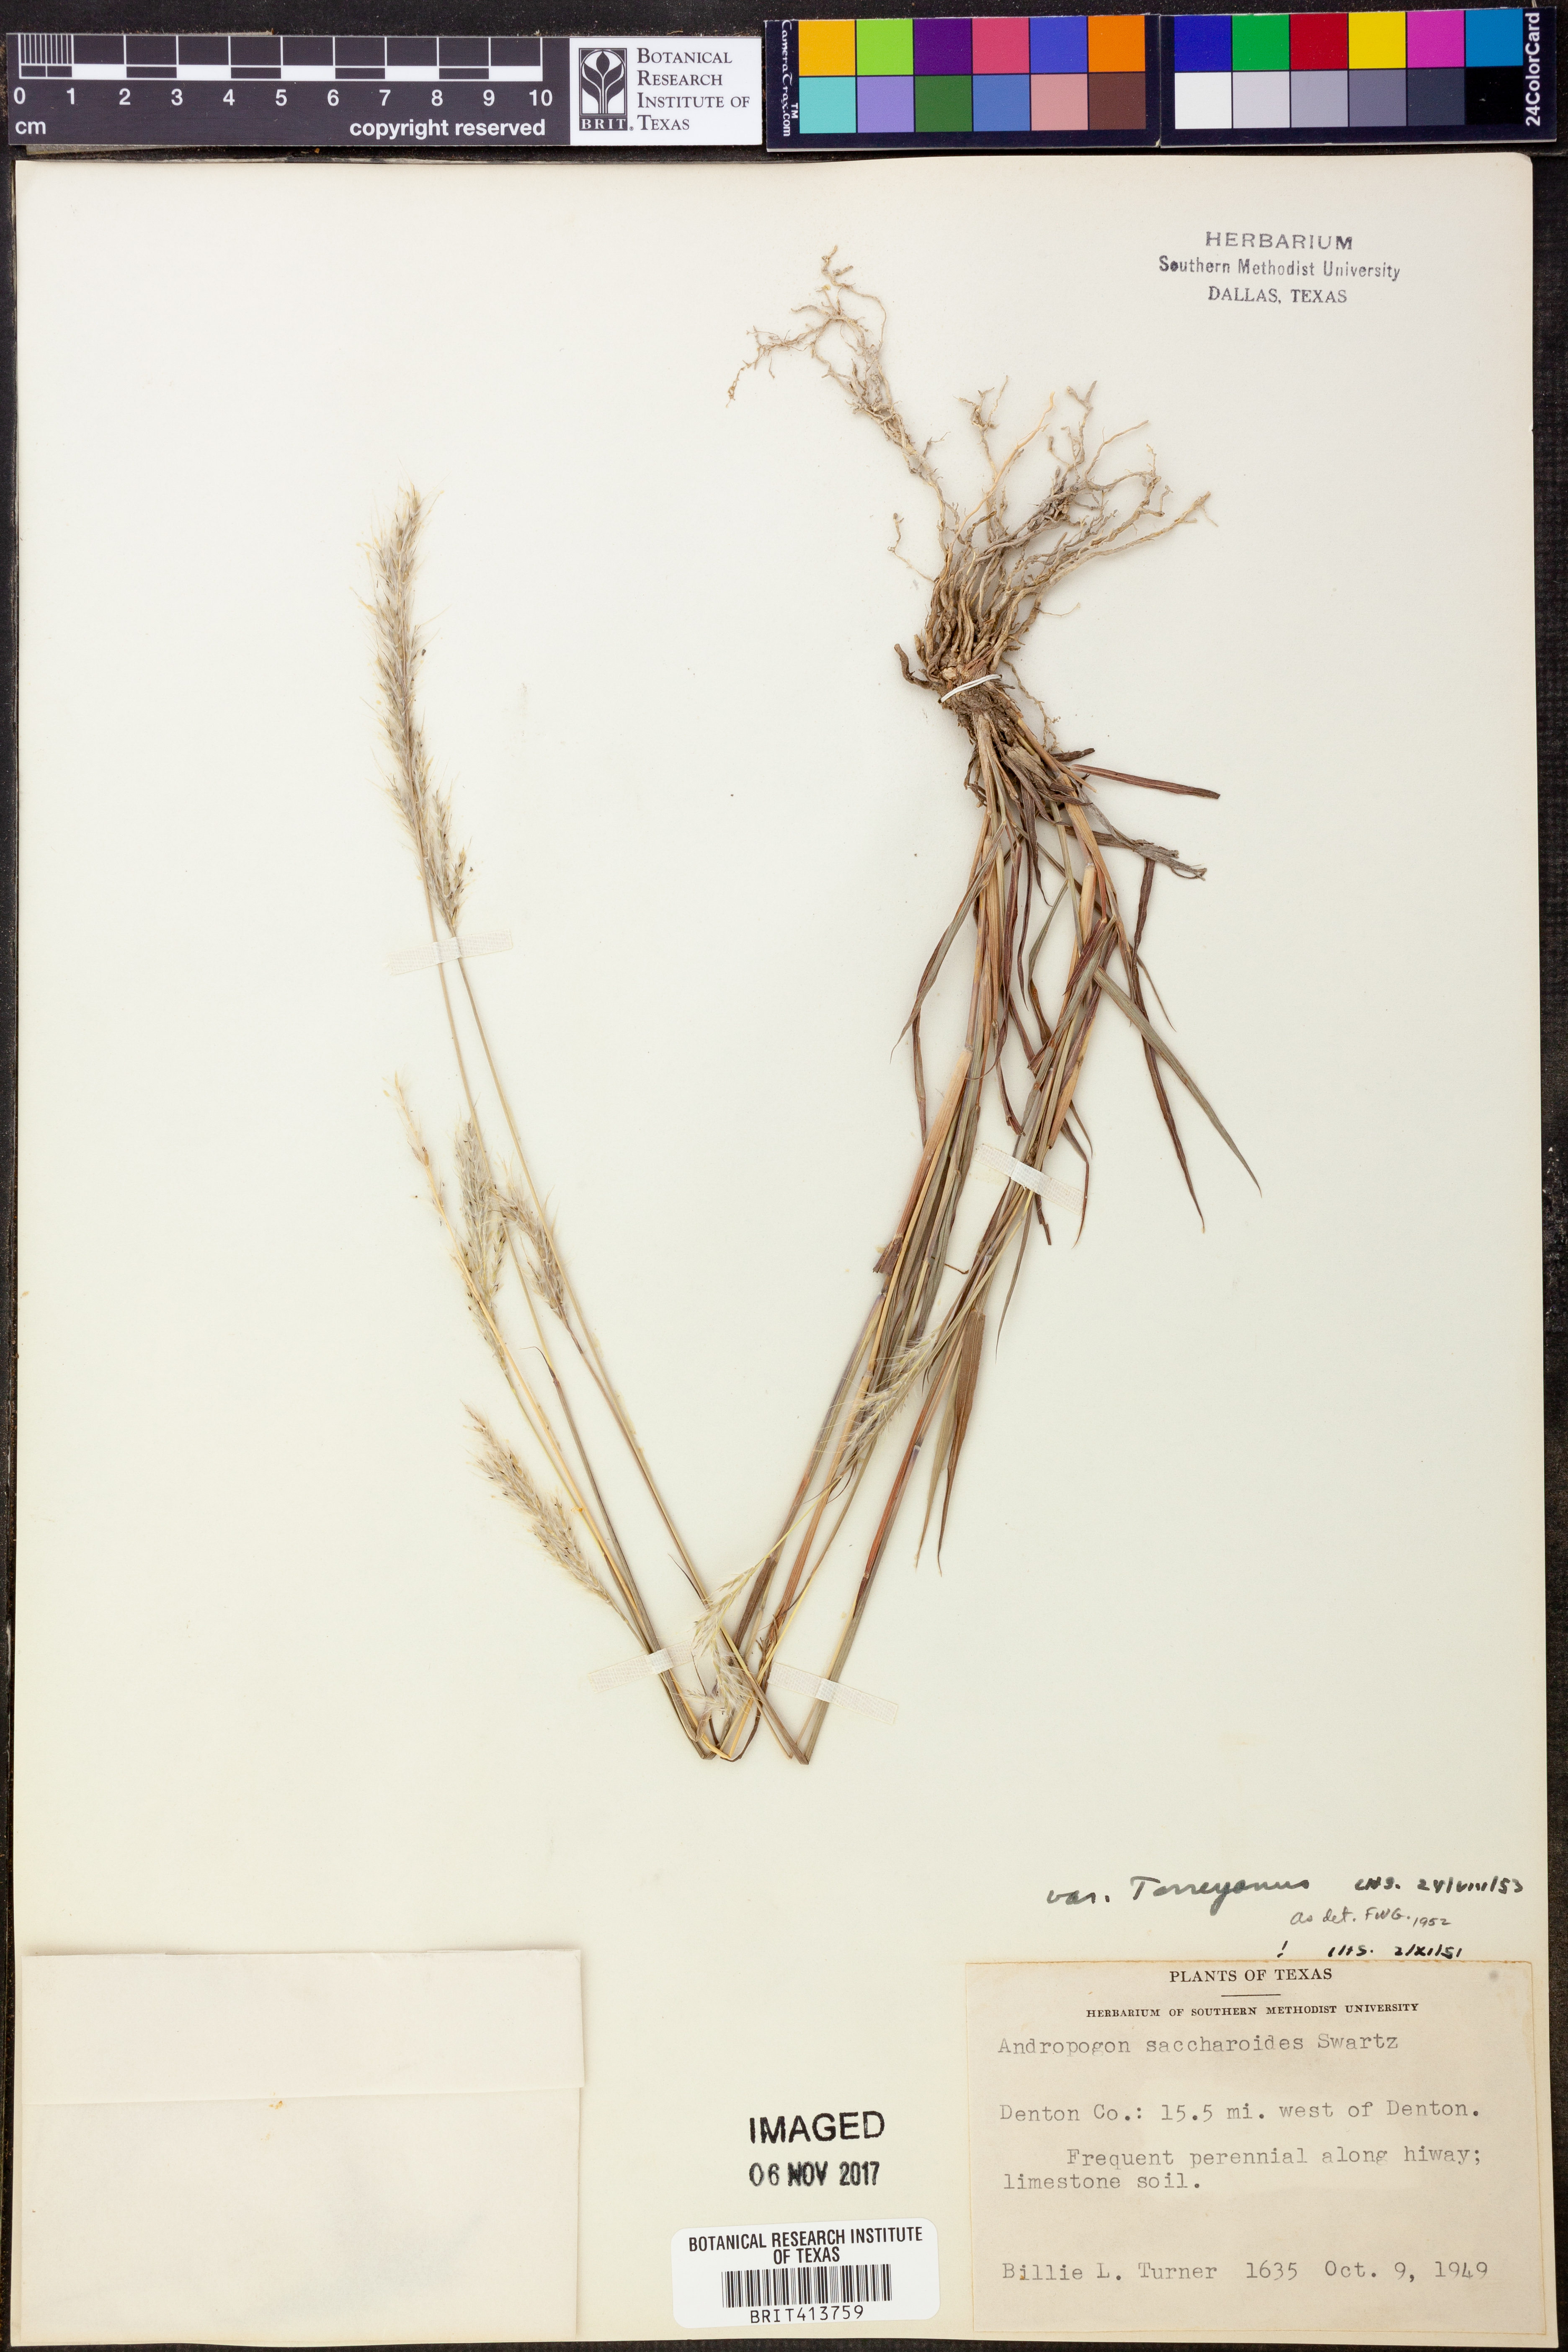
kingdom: Plantae
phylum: Tracheophyta
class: Liliopsida
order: Poales
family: Poaceae
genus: Bothriochloa
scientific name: Bothriochloa torreyana
